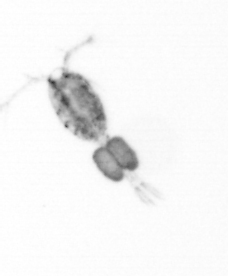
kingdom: Animalia
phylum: Arthropoda
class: Copepoda
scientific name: Copepoda
